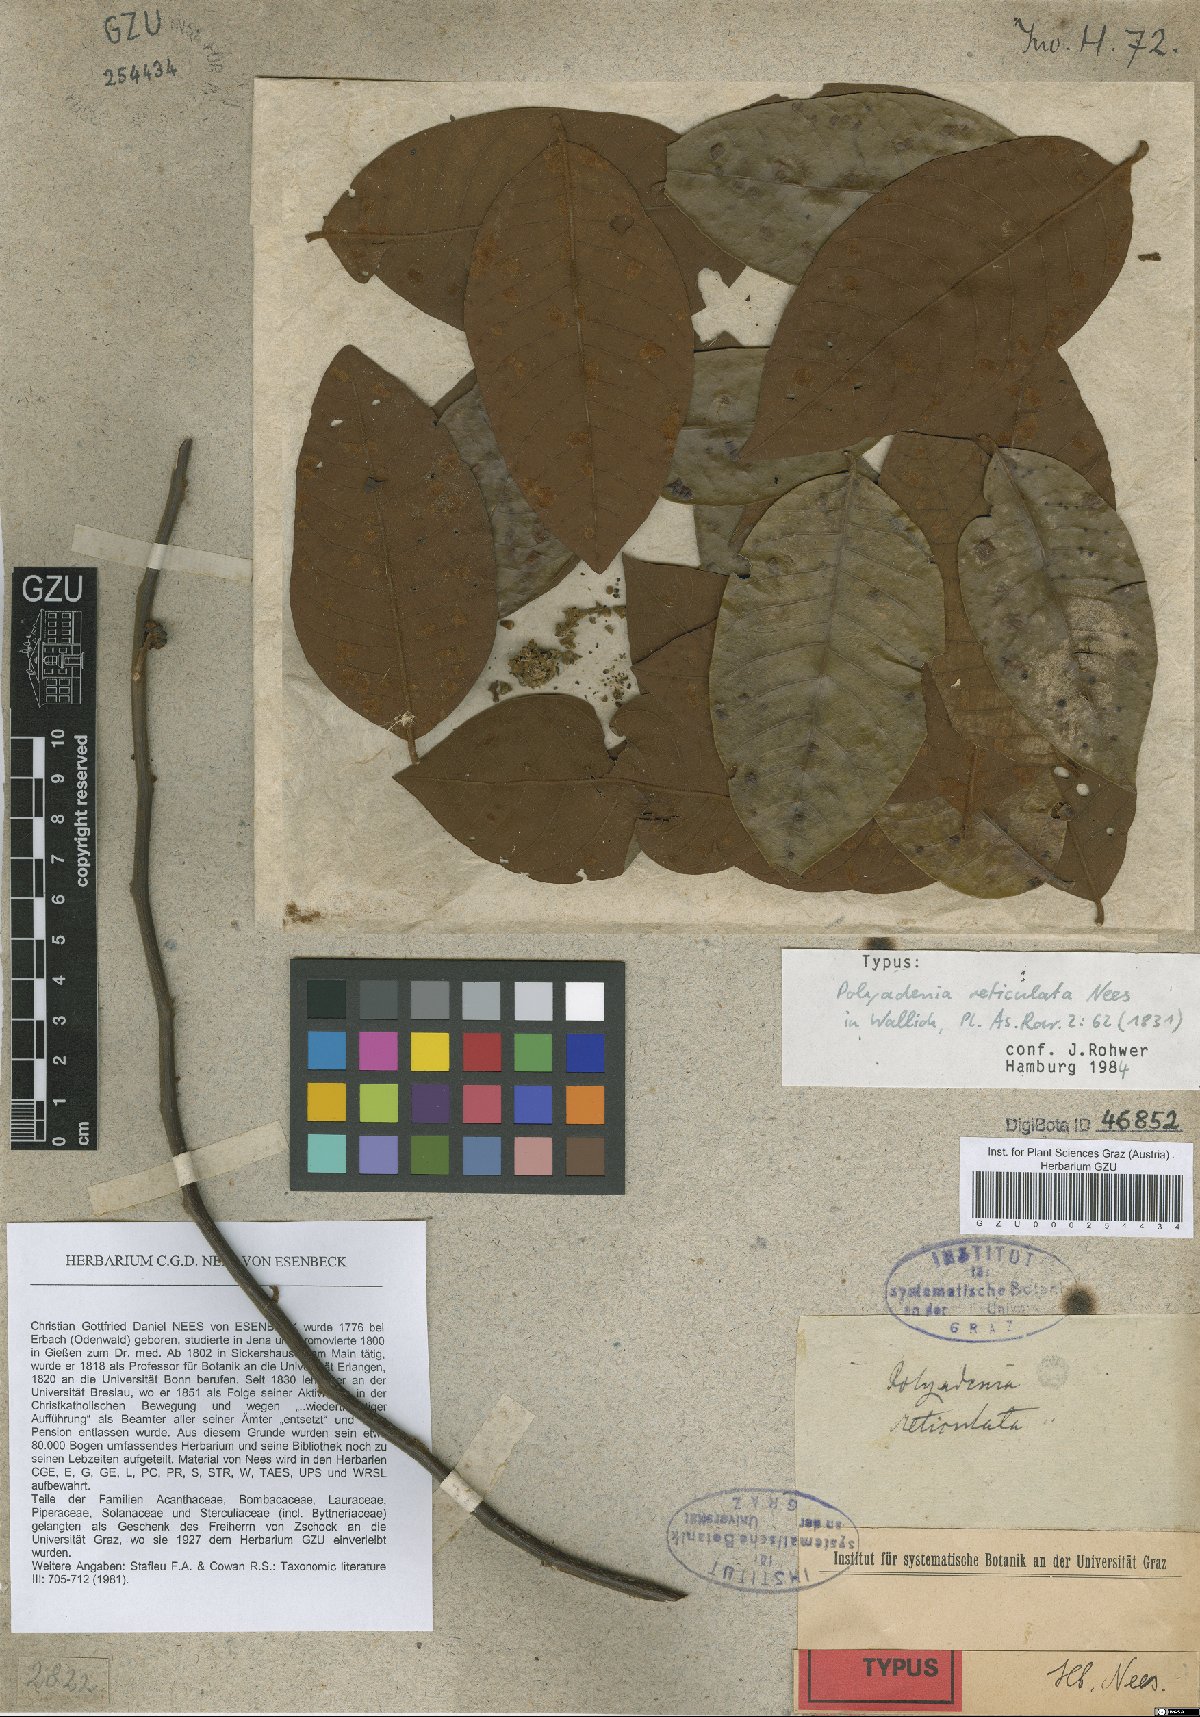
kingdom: Plantae
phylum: Tracheophyta
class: Magnoliopsida
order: Laurales
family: Lauraceae
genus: Lindera
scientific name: Lindera reticulata
